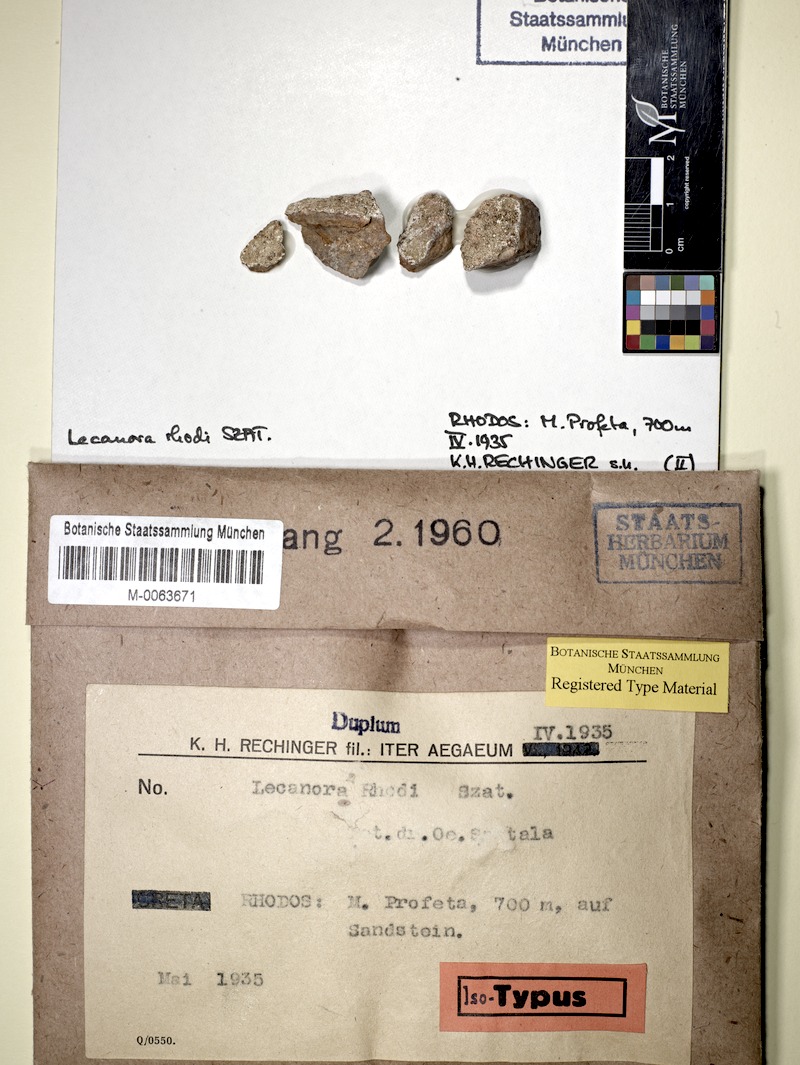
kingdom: Fungi
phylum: Ascomycota
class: Lecanoromycetes
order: Lecanorales
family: Lecanoraceae
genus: Lecanora
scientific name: Lecanora
